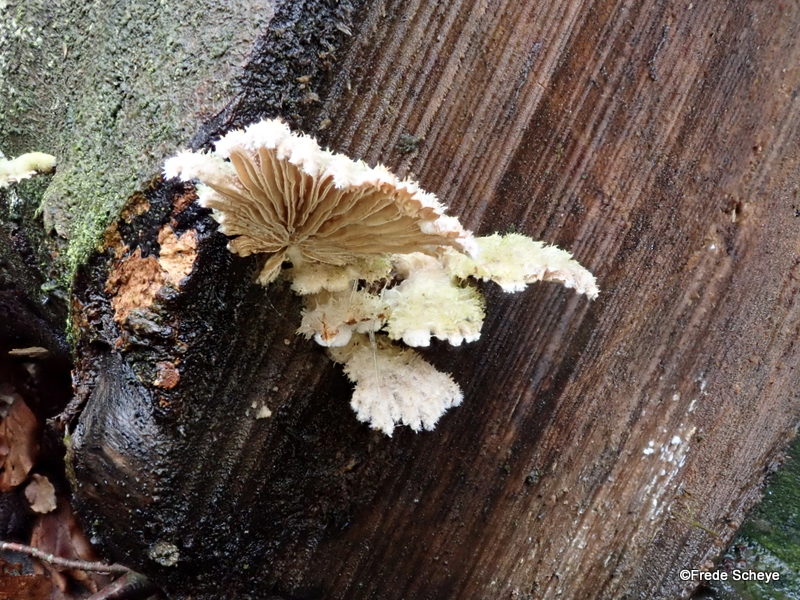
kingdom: Fungi
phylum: Basidiomycota
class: Agaricomycetes
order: Agaricales
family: Schizophyllaceae
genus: Schizophyllum
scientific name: Schizophyllum commune
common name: kløvblad
